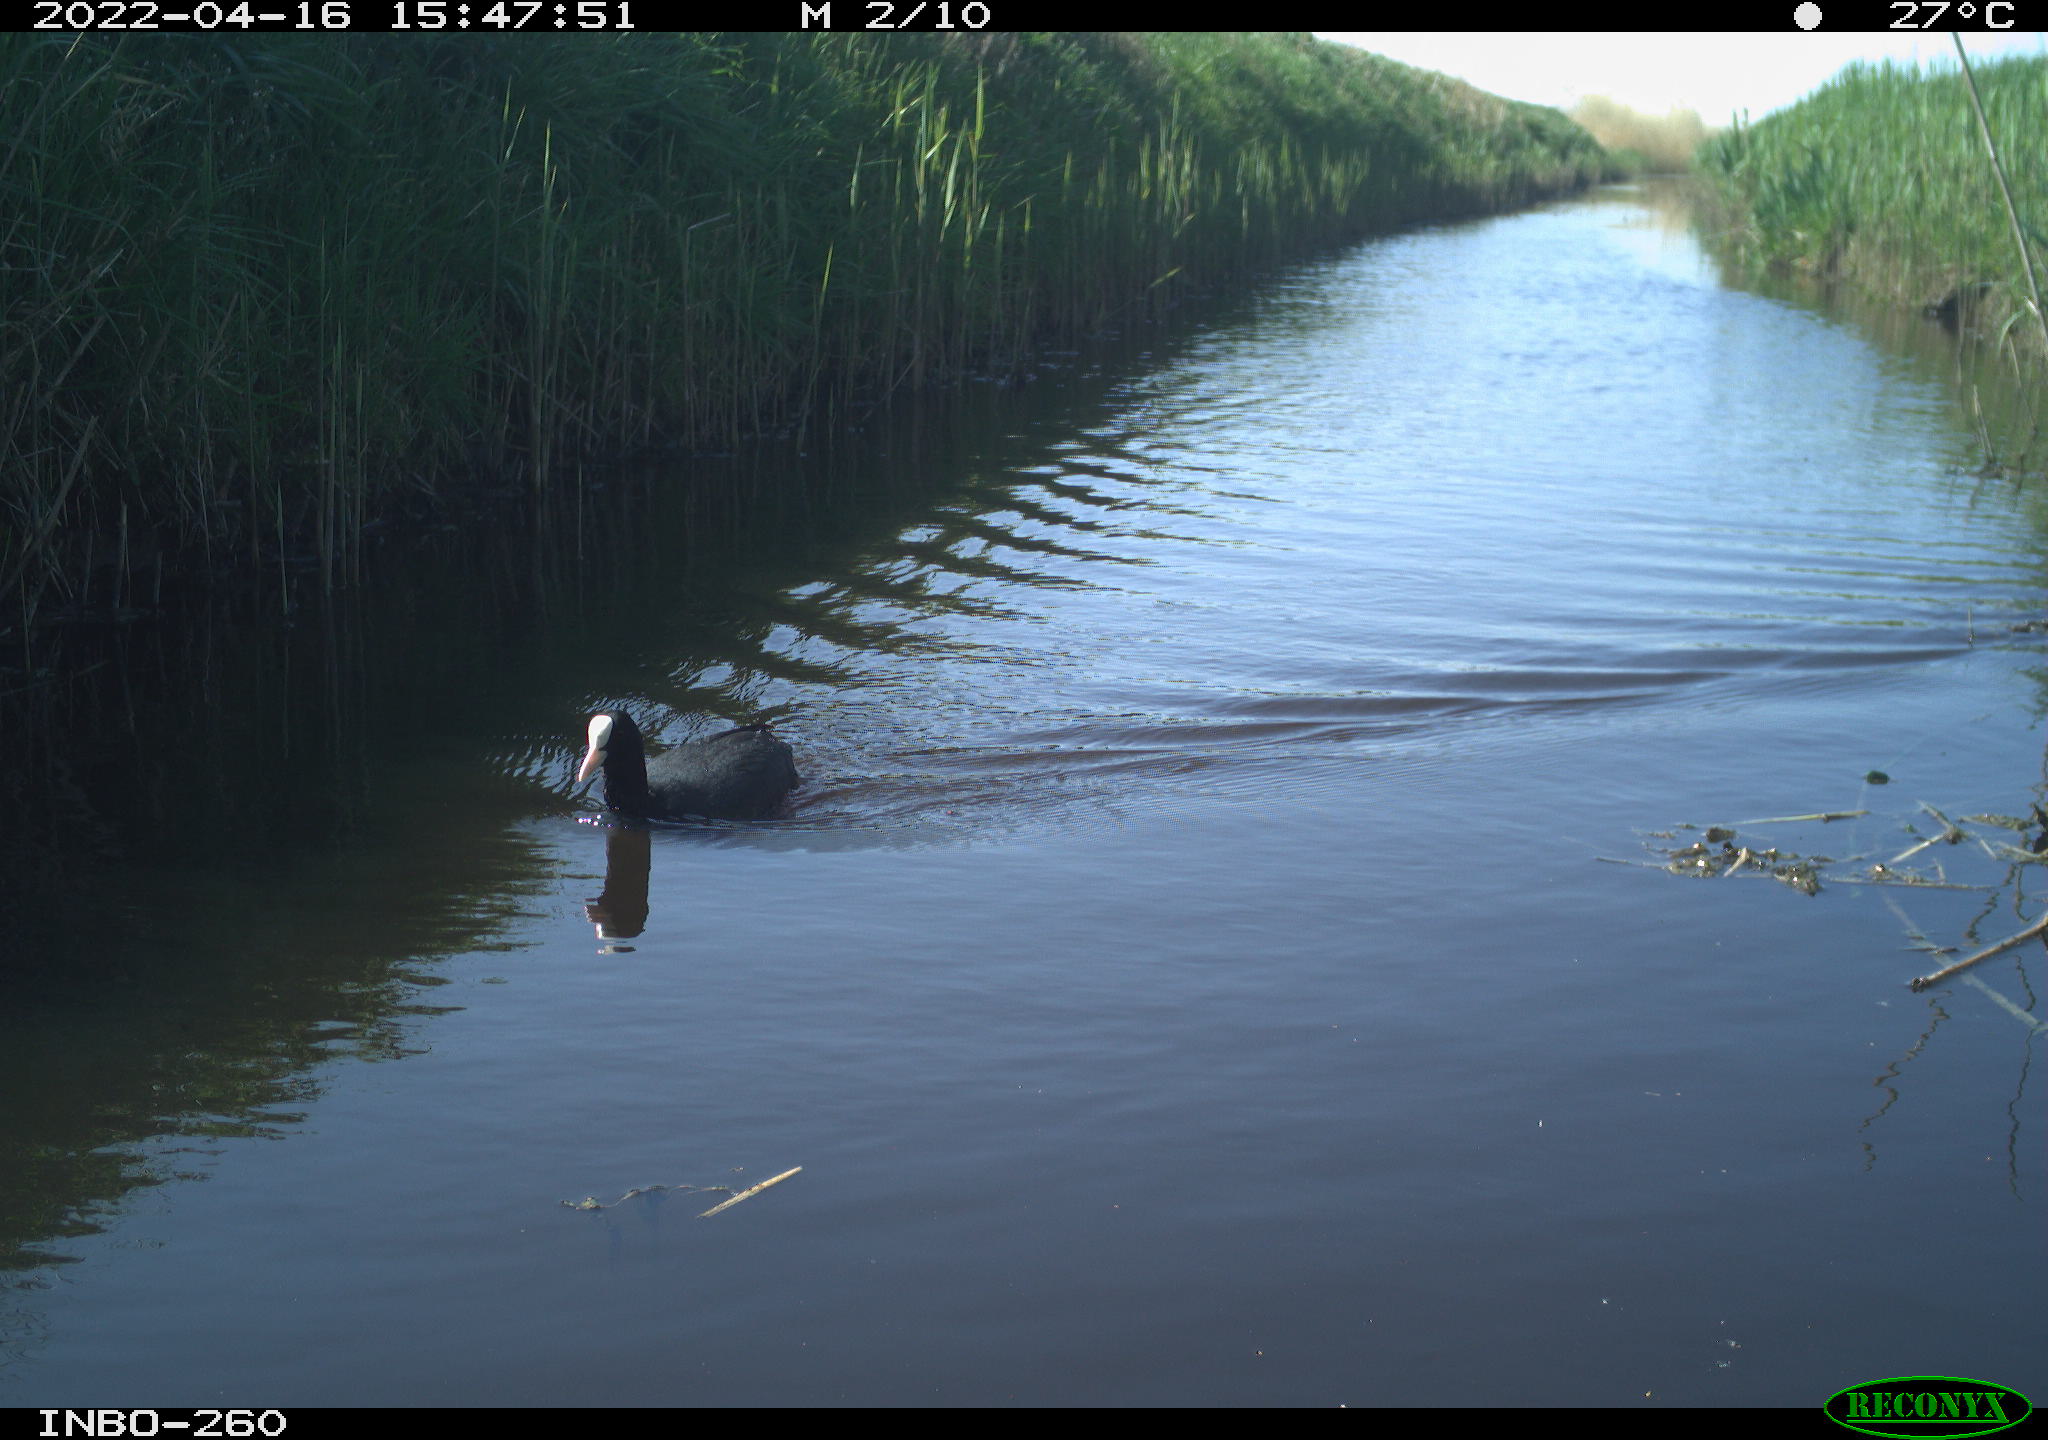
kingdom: Animalia
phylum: Chordata
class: Aves
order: Gruiformes
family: Rallidae
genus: Fulica
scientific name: Fulica atra
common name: Eurasian coot
